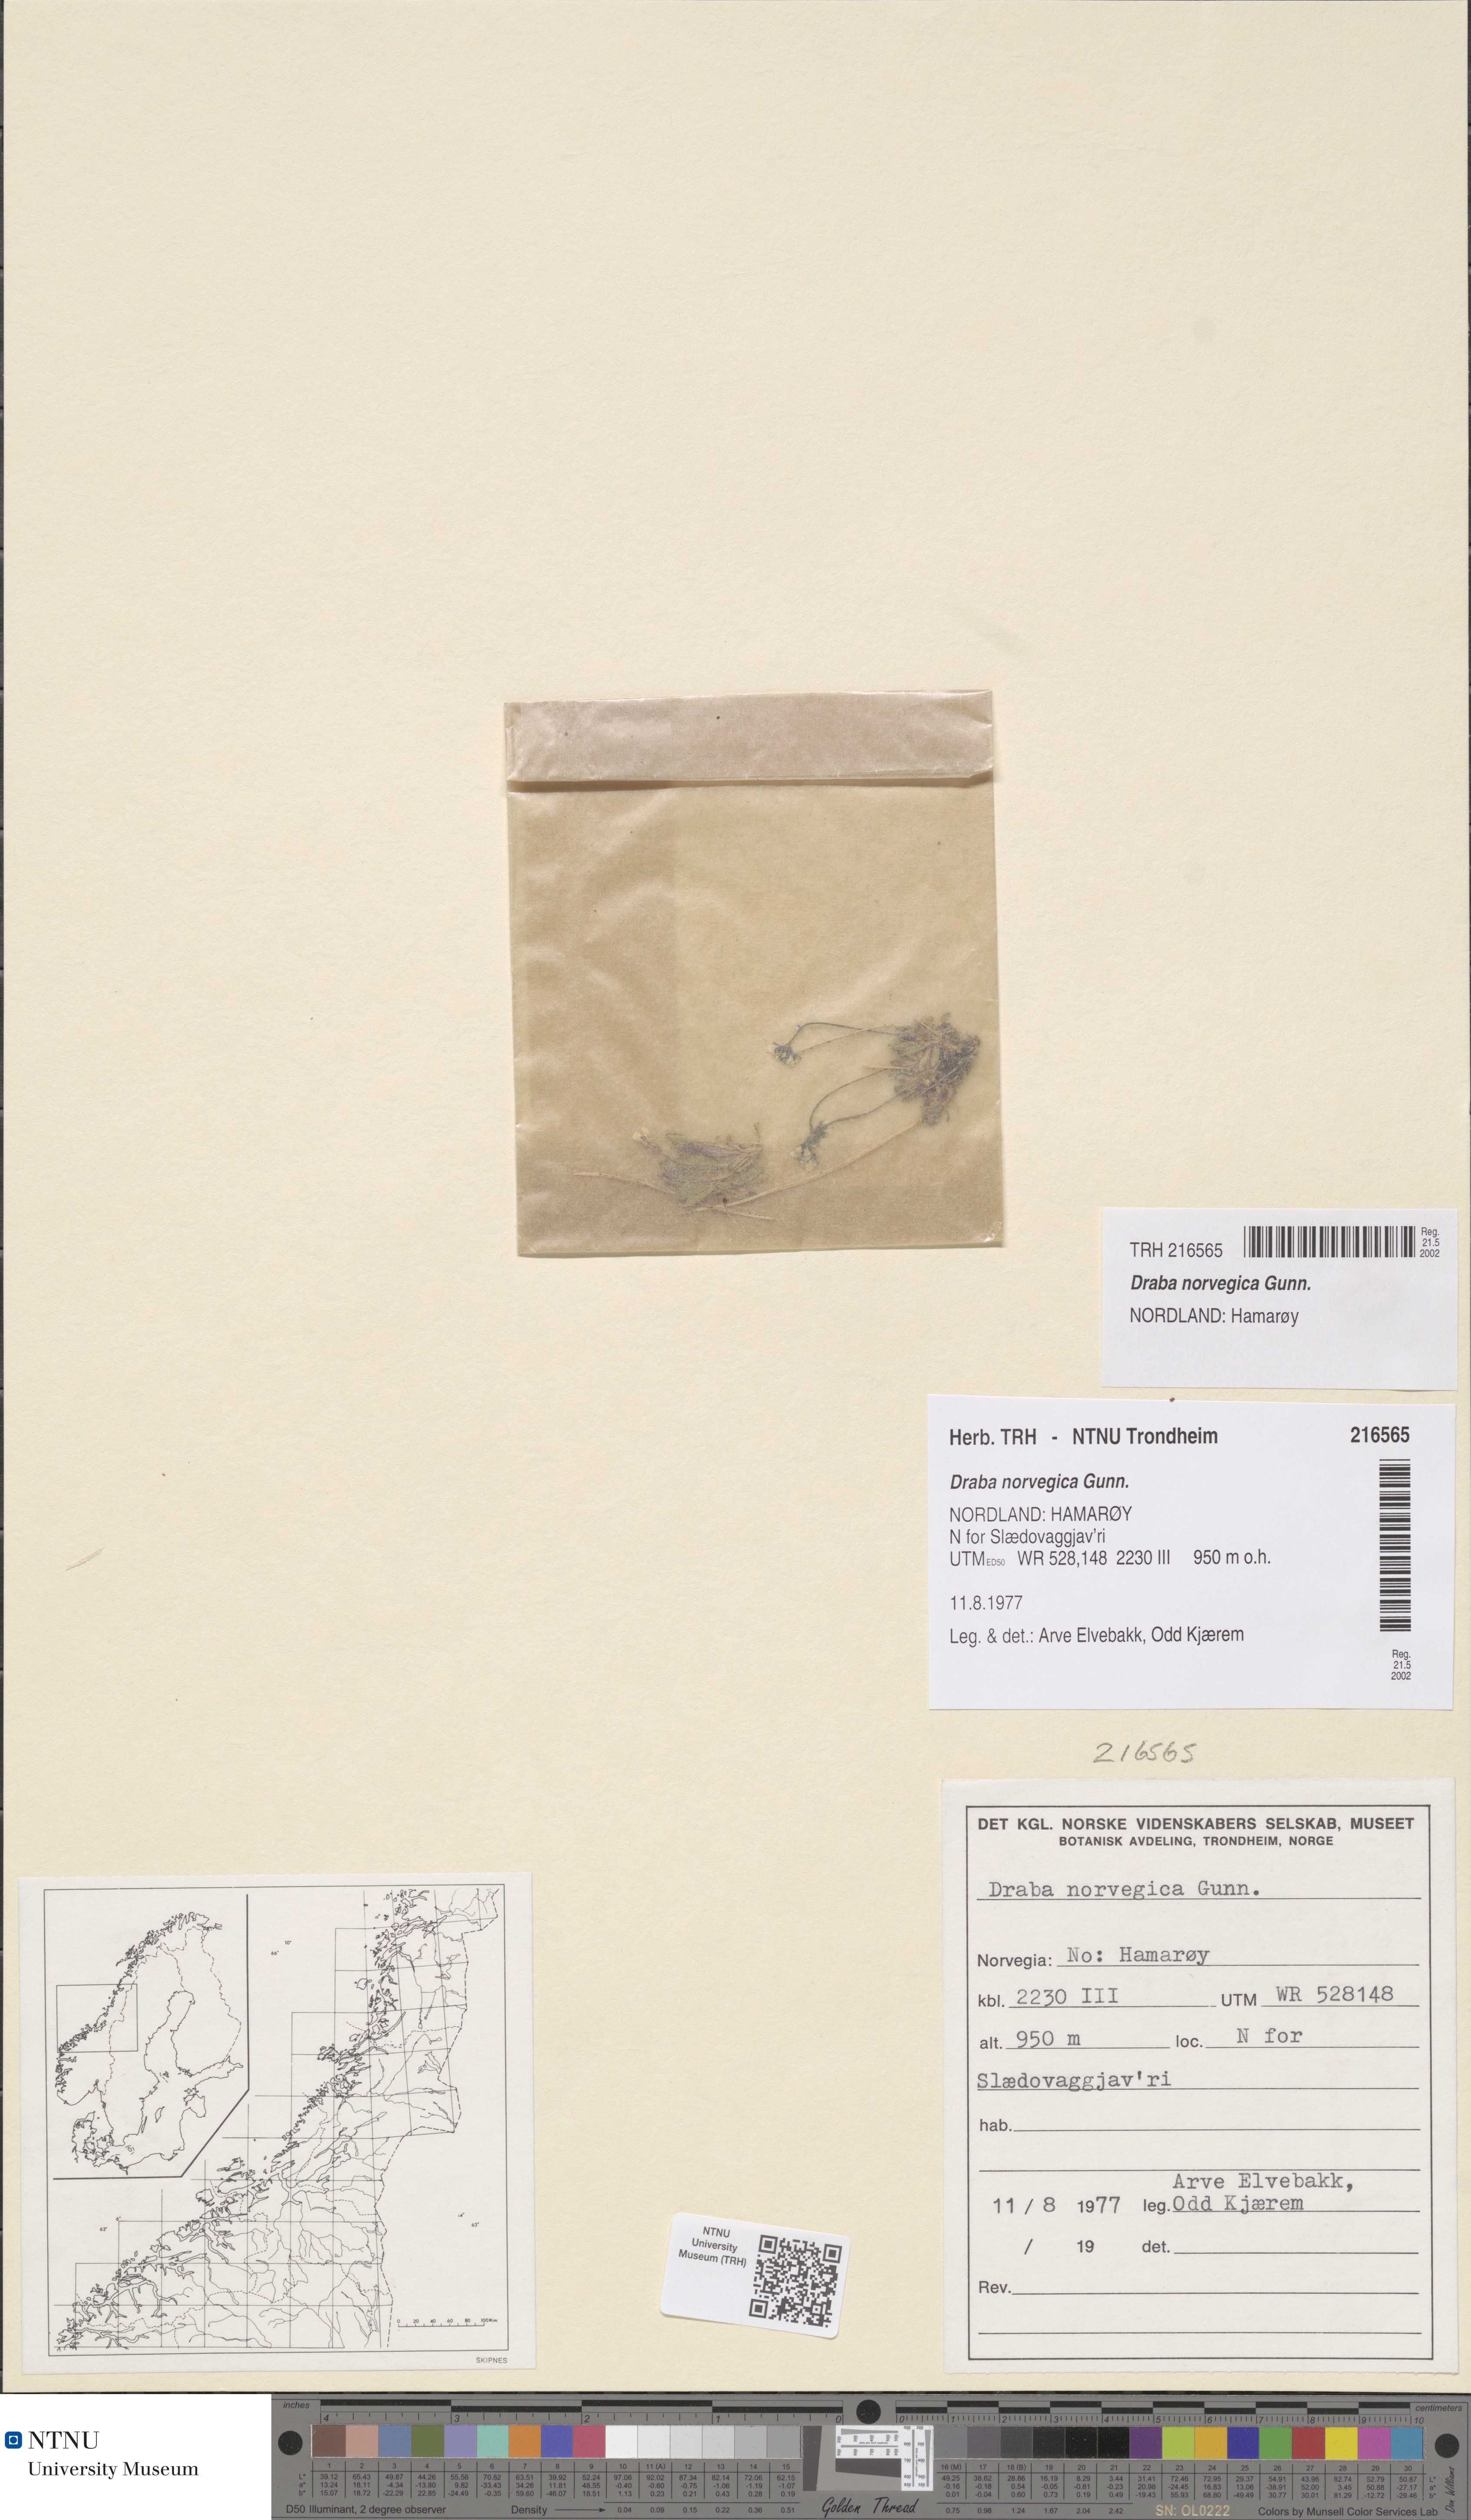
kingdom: Plantae
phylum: Tracheophyta
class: Magnoliopsida
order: Brassicales
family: Brassicaceae
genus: Draba
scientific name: Draba norvegica
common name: Rock whitlowgrass
